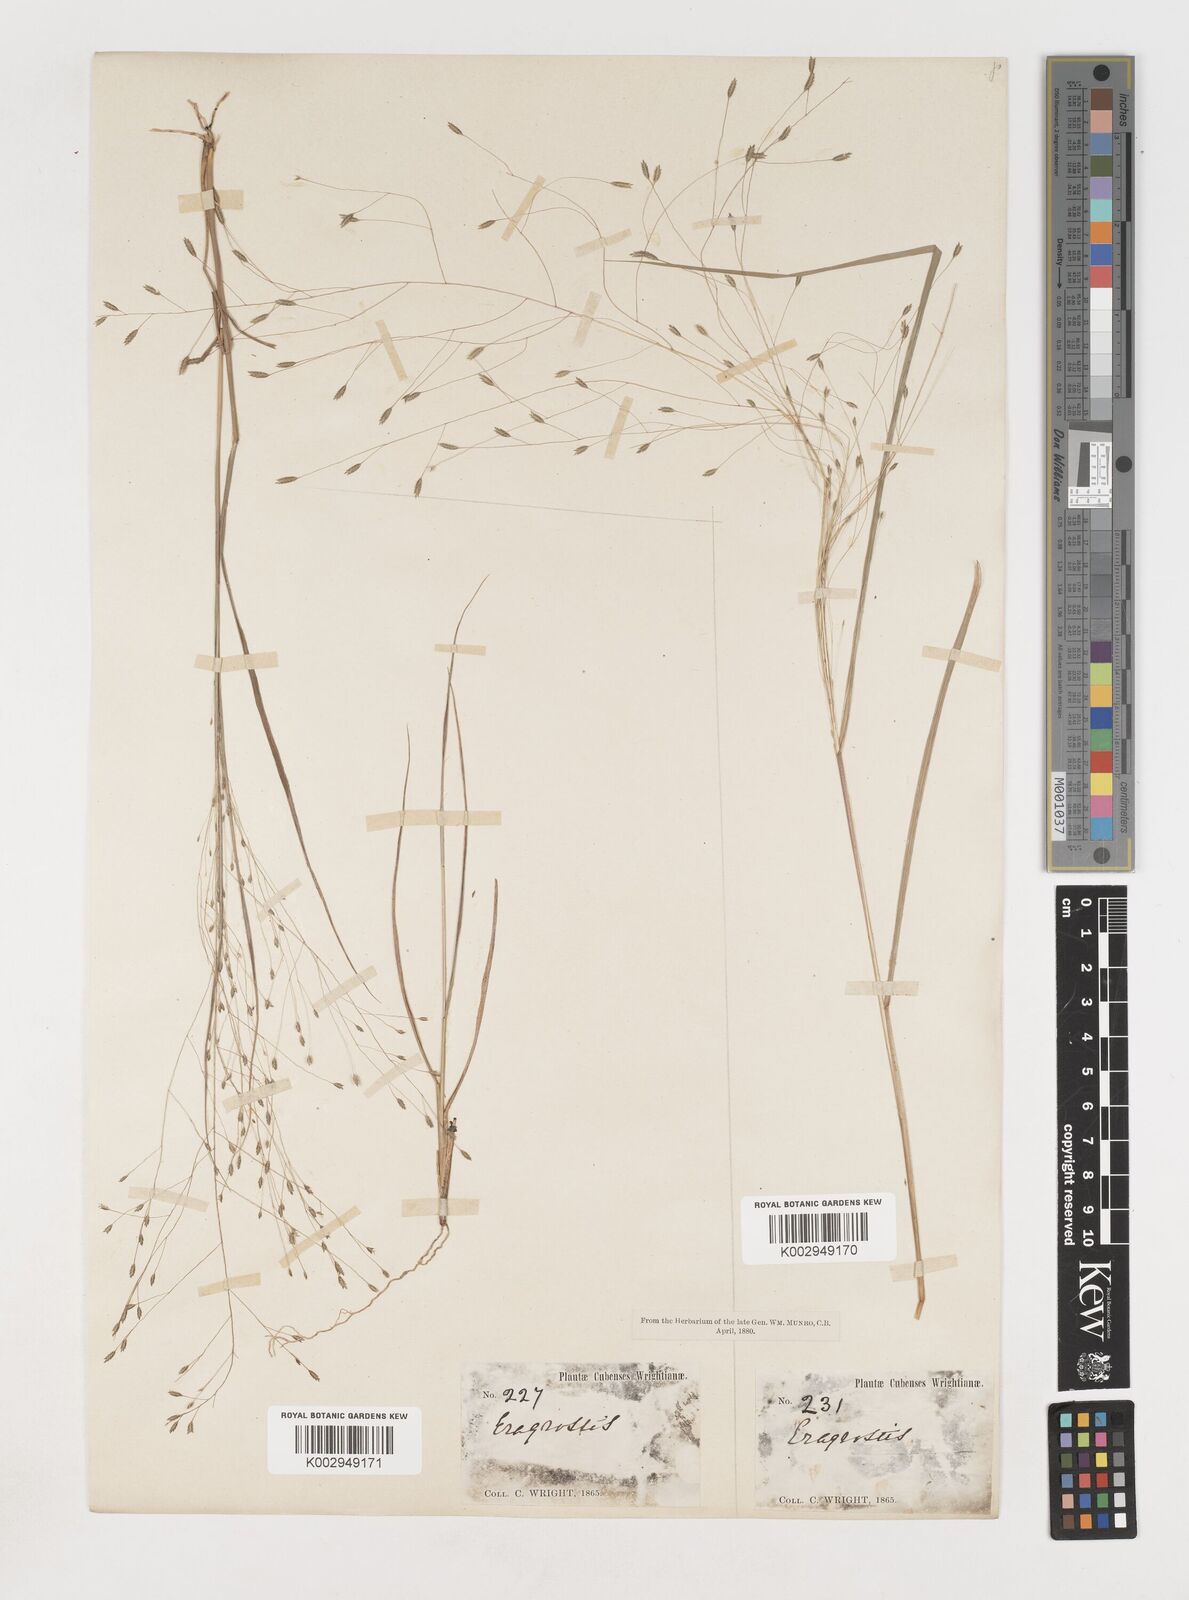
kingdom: Plantae
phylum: Tracheophyta
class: Liliopsida
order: Poales
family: Poaceae
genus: Eragrostis
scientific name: Eragrostis elliottii
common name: Elliott's love grass
